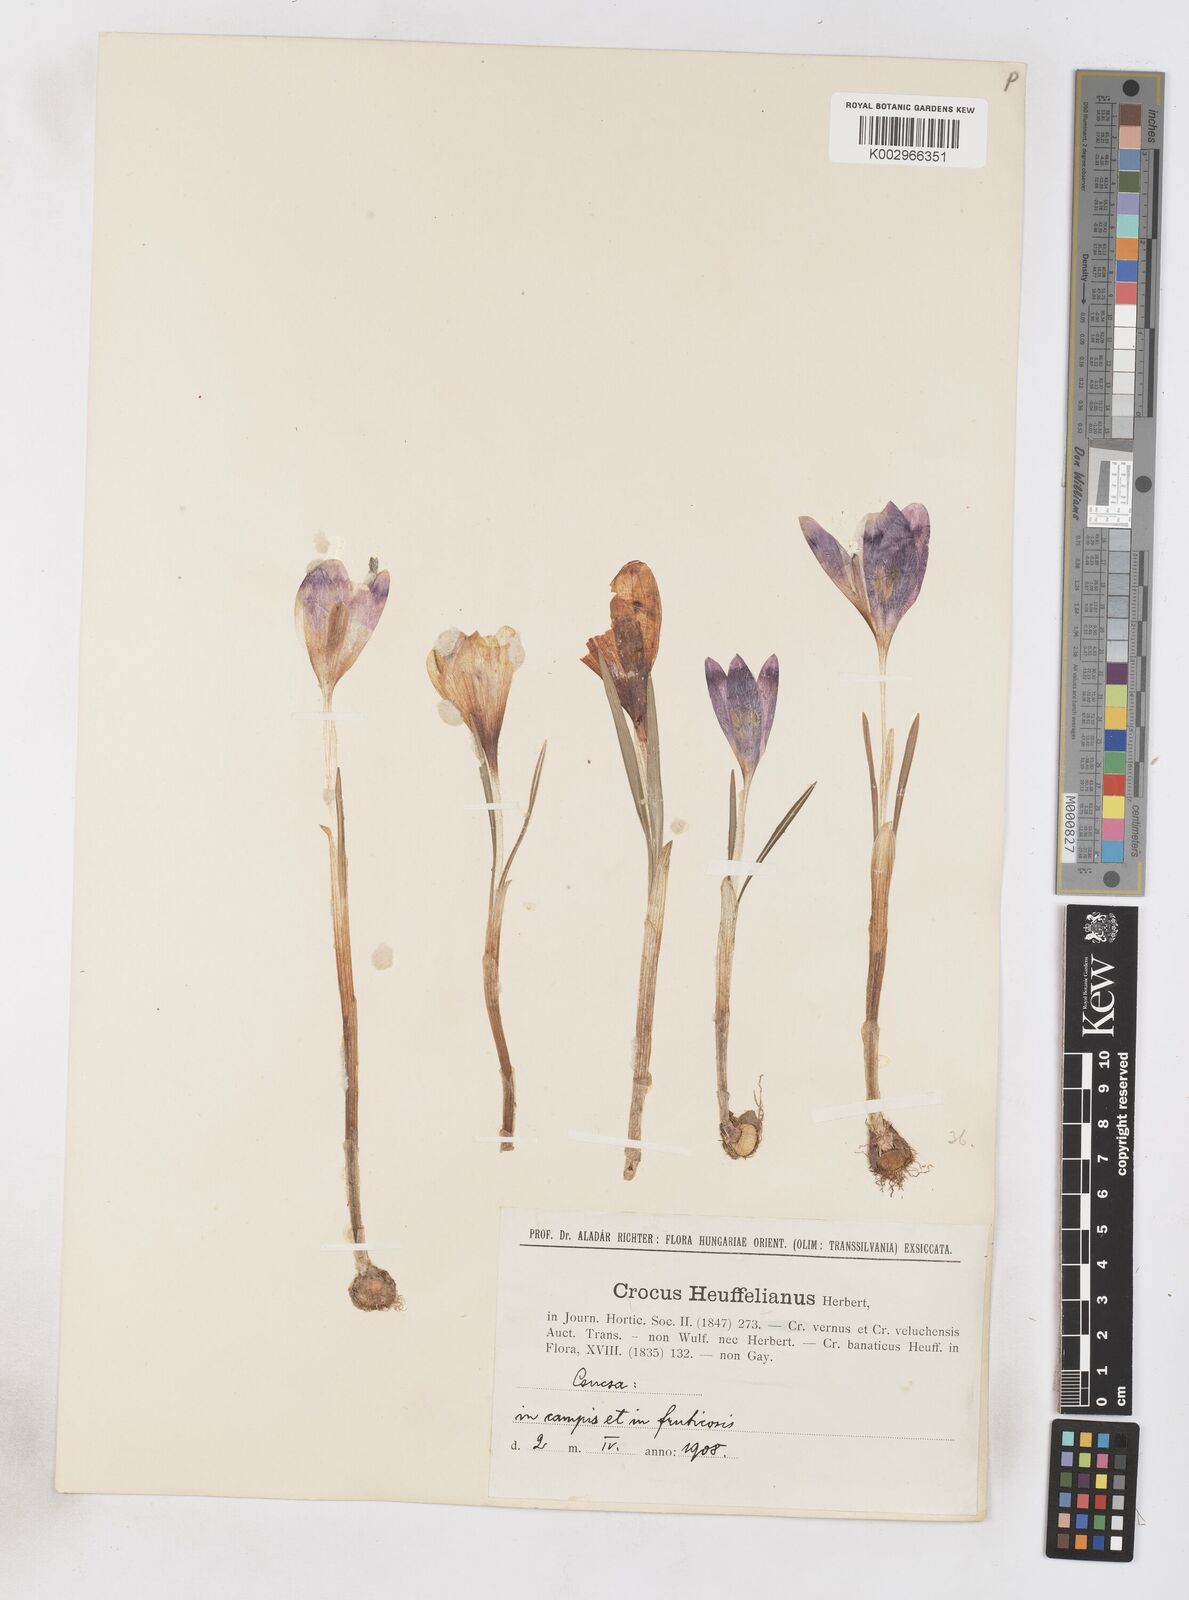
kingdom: Plantae
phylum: Tracheophyta
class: Liliopsida
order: Asparagales
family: Iridaceae
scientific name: Iridaceae
